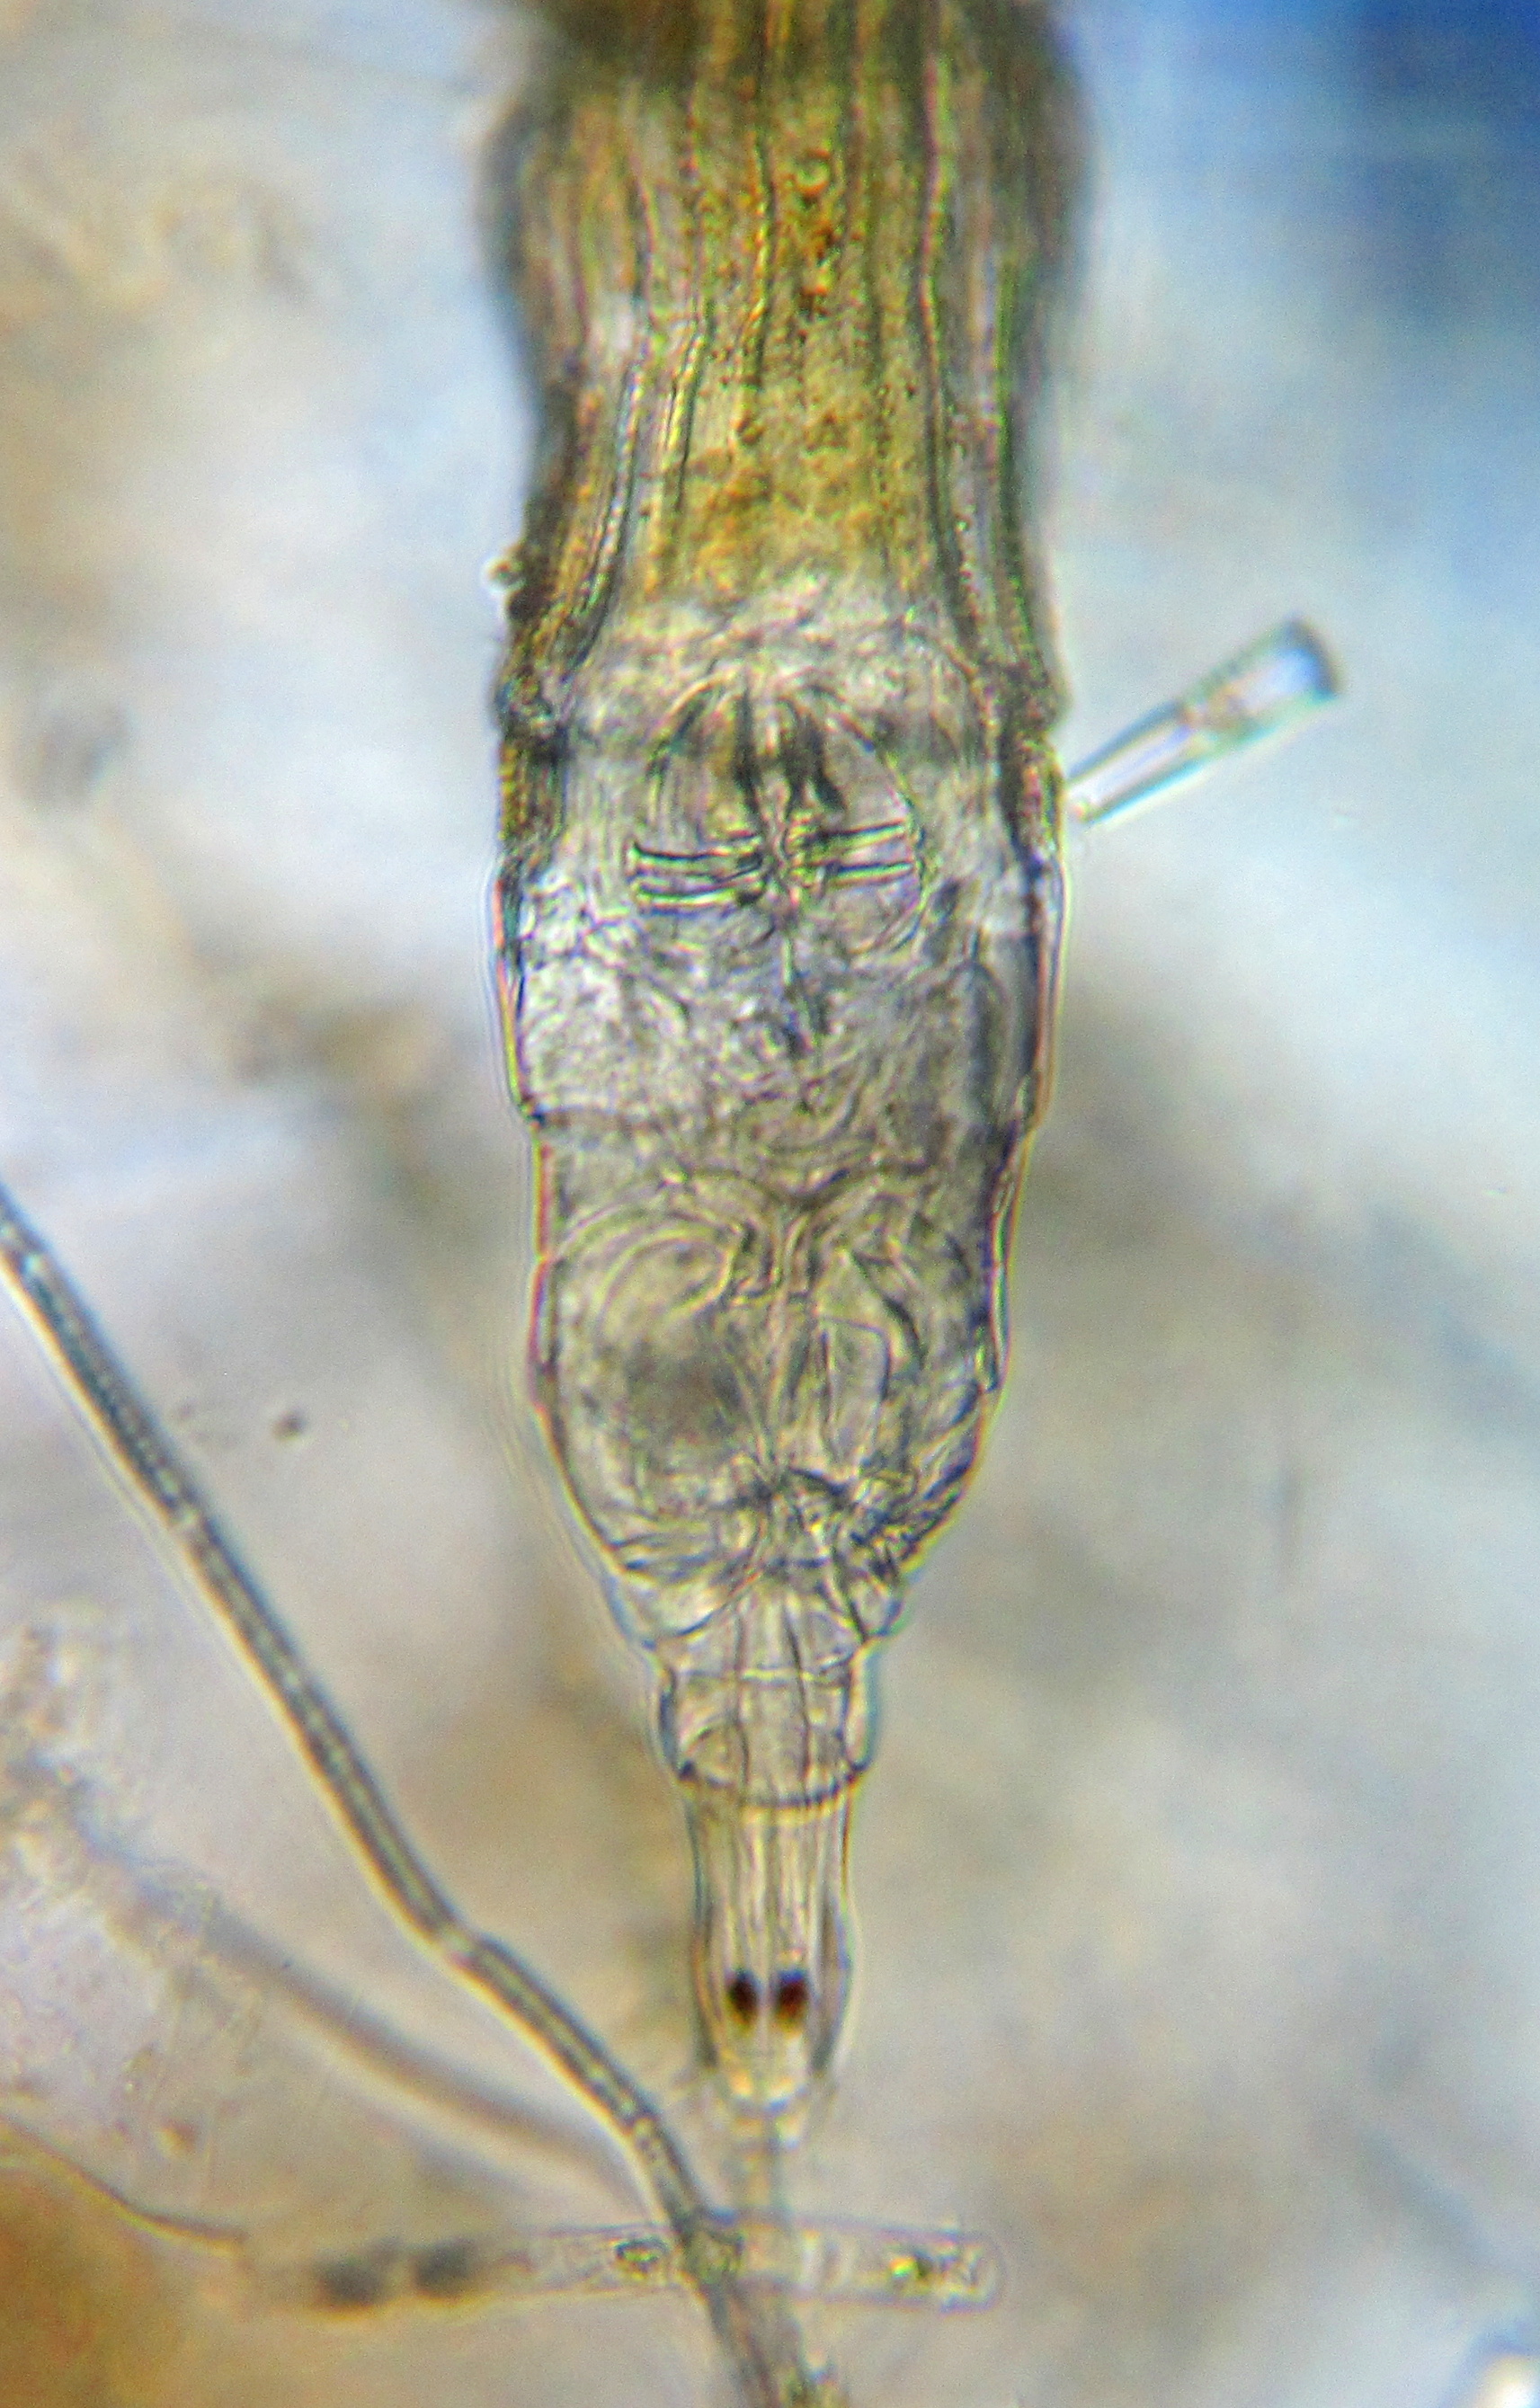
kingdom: Animalia
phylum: Rotifera
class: Eurotatoria
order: Bdelloidea
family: Philodinidae
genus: Philodina
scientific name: Philodina citrina
